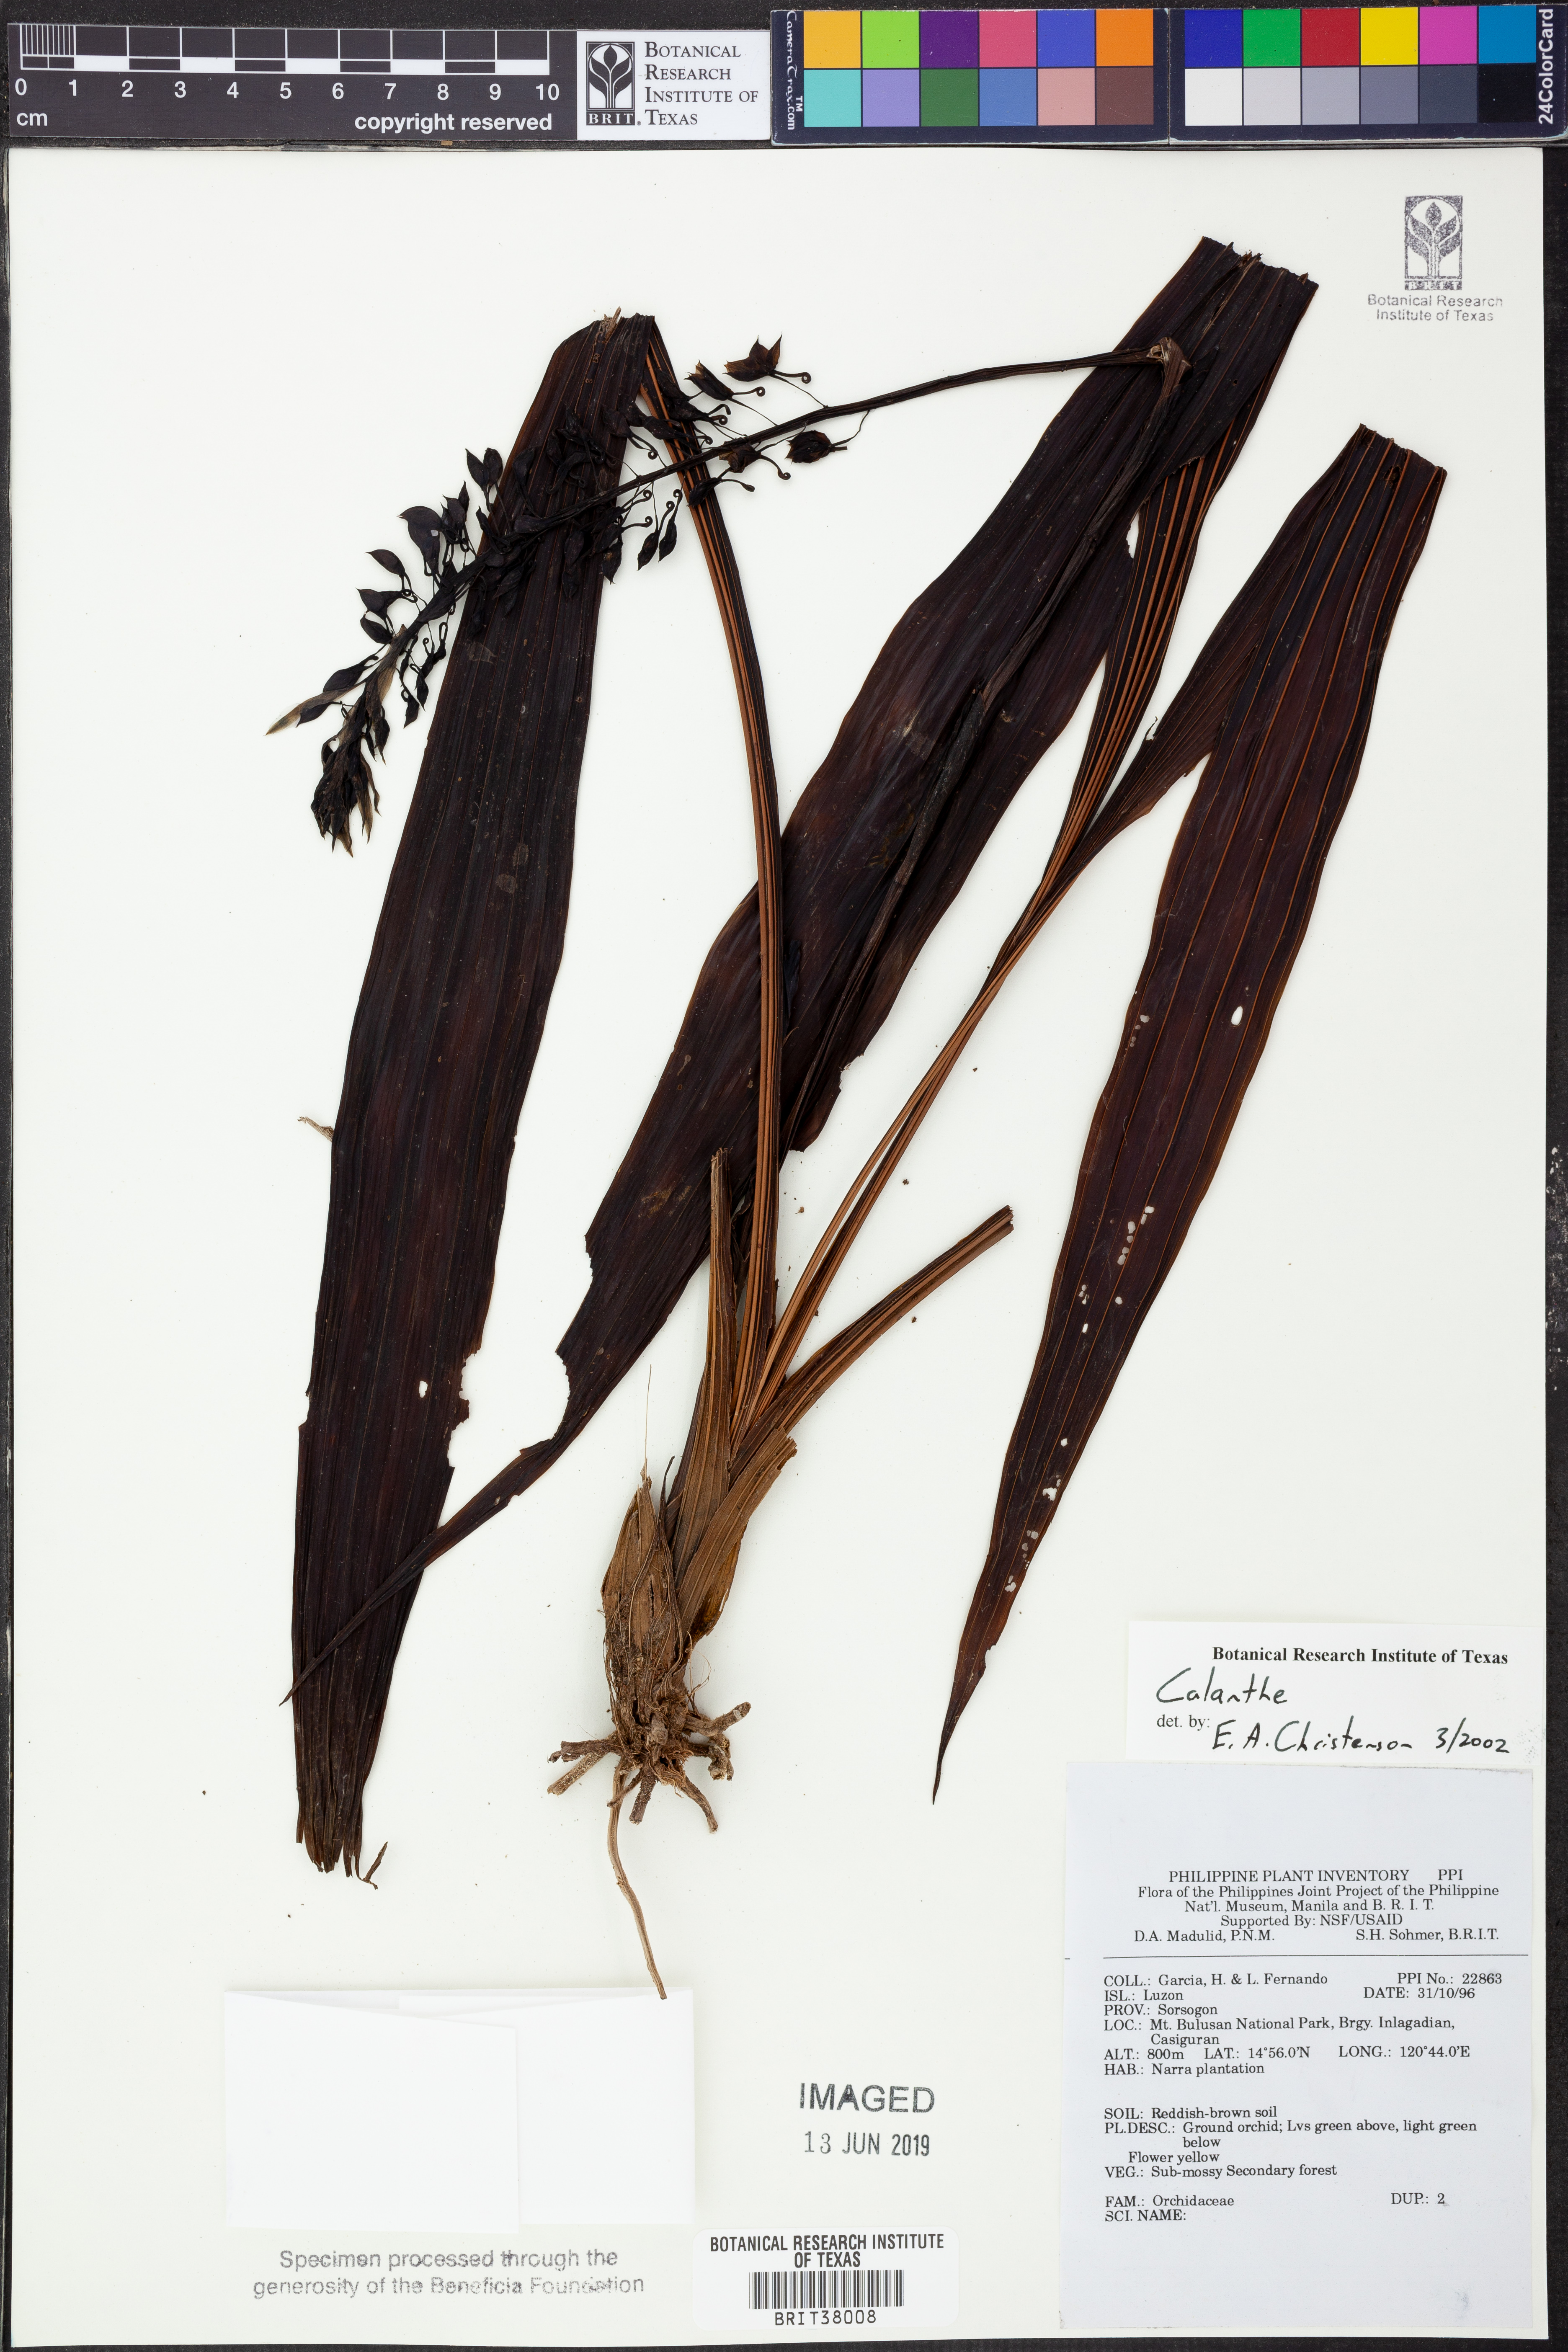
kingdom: Plantae
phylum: Tracheophyta
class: Liliopsida
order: Asparagales
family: Orchidaceae
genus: Calanthe
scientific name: Calanthe
